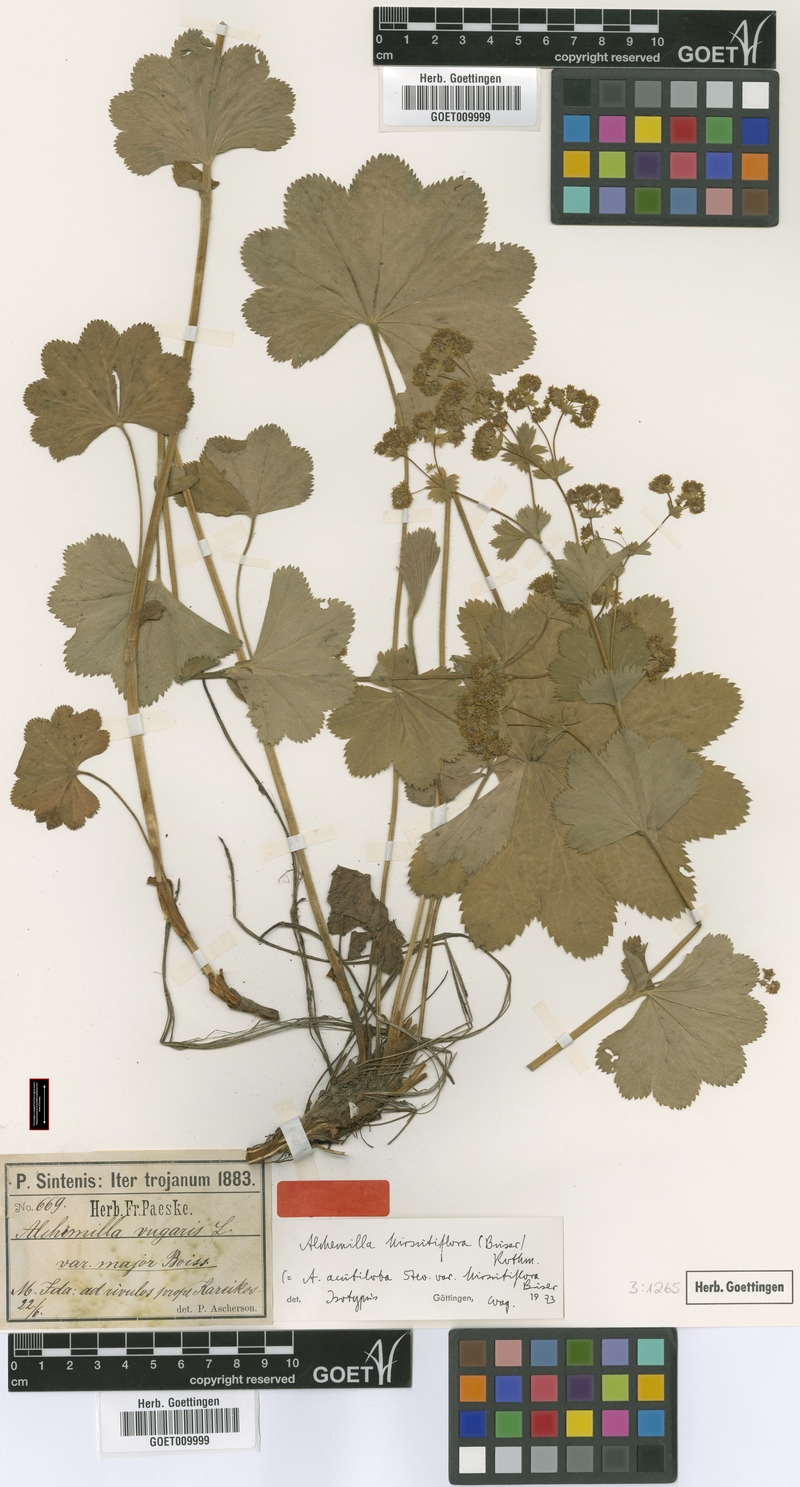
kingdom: Plantae
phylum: Tracheophyta
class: Magnoliopsida
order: Rosales
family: Rosaceae
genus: Alchemilla
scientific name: Alchemilla hirsutiflora
